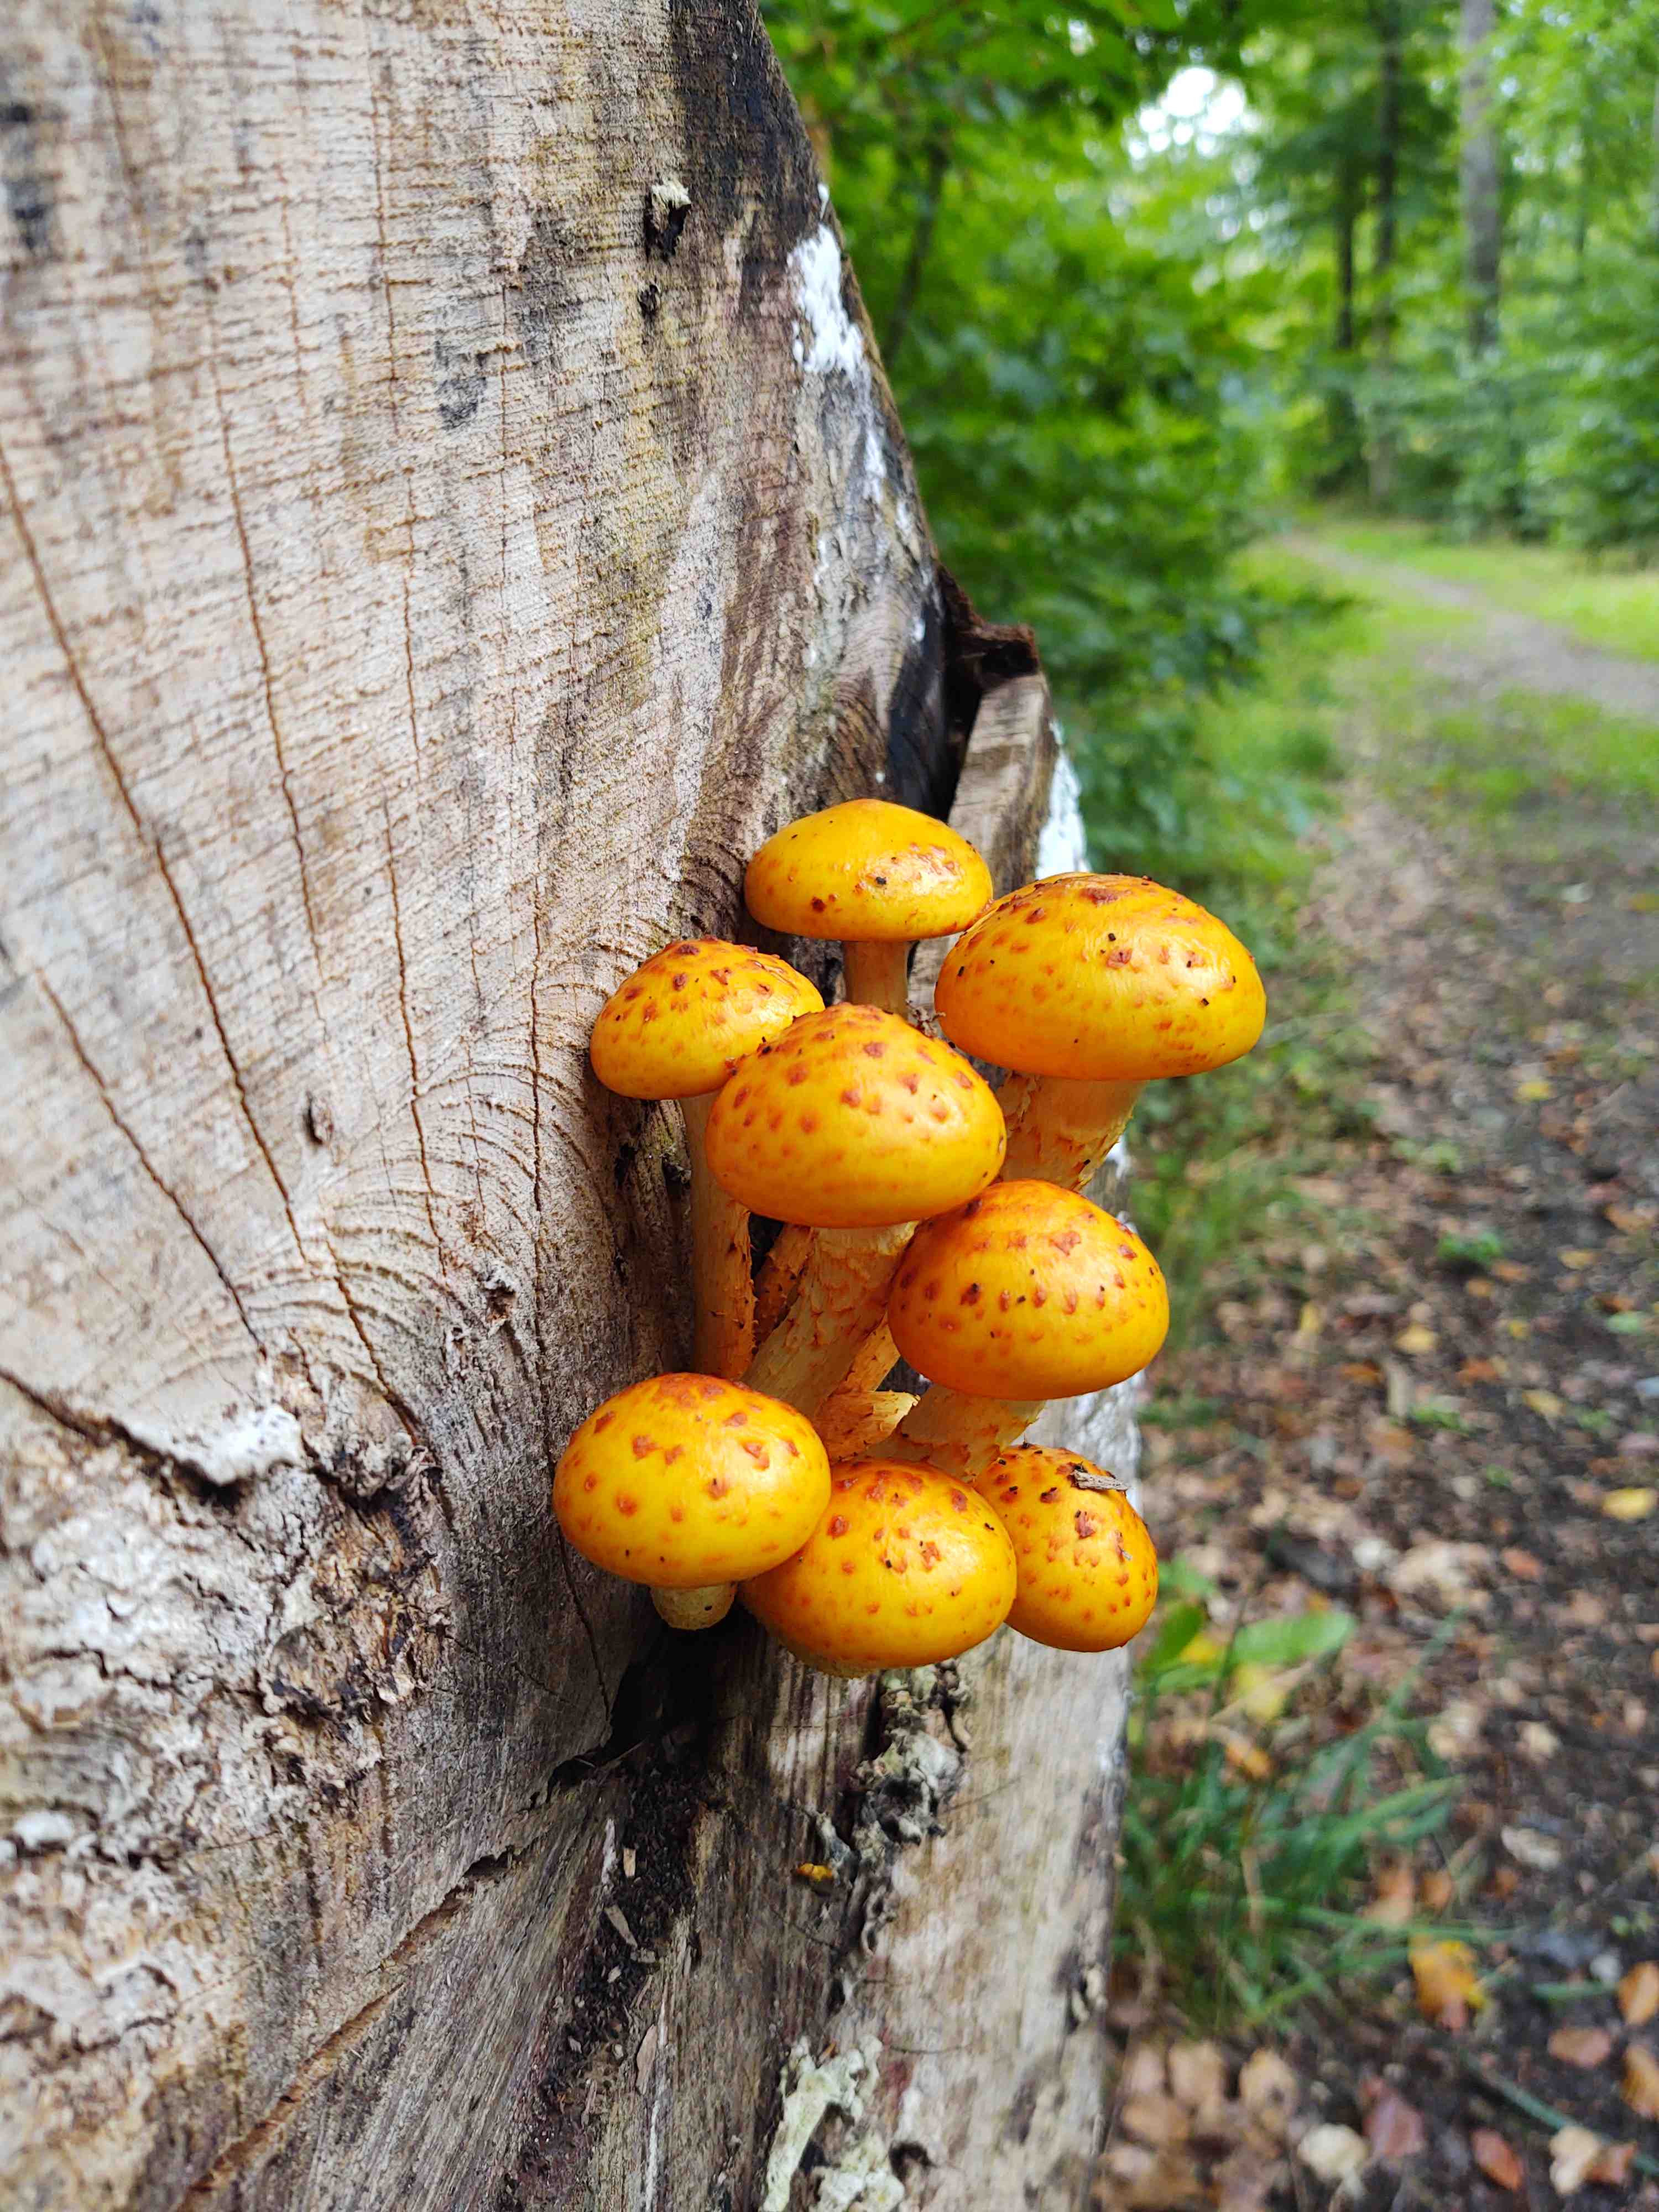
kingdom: Fungi
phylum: Basidiomycota
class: Agaricomycetes
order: Agaricales
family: Strophariaceae
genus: Pholiota
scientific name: Pholiota adiposa
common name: højtsiddende skælhat
